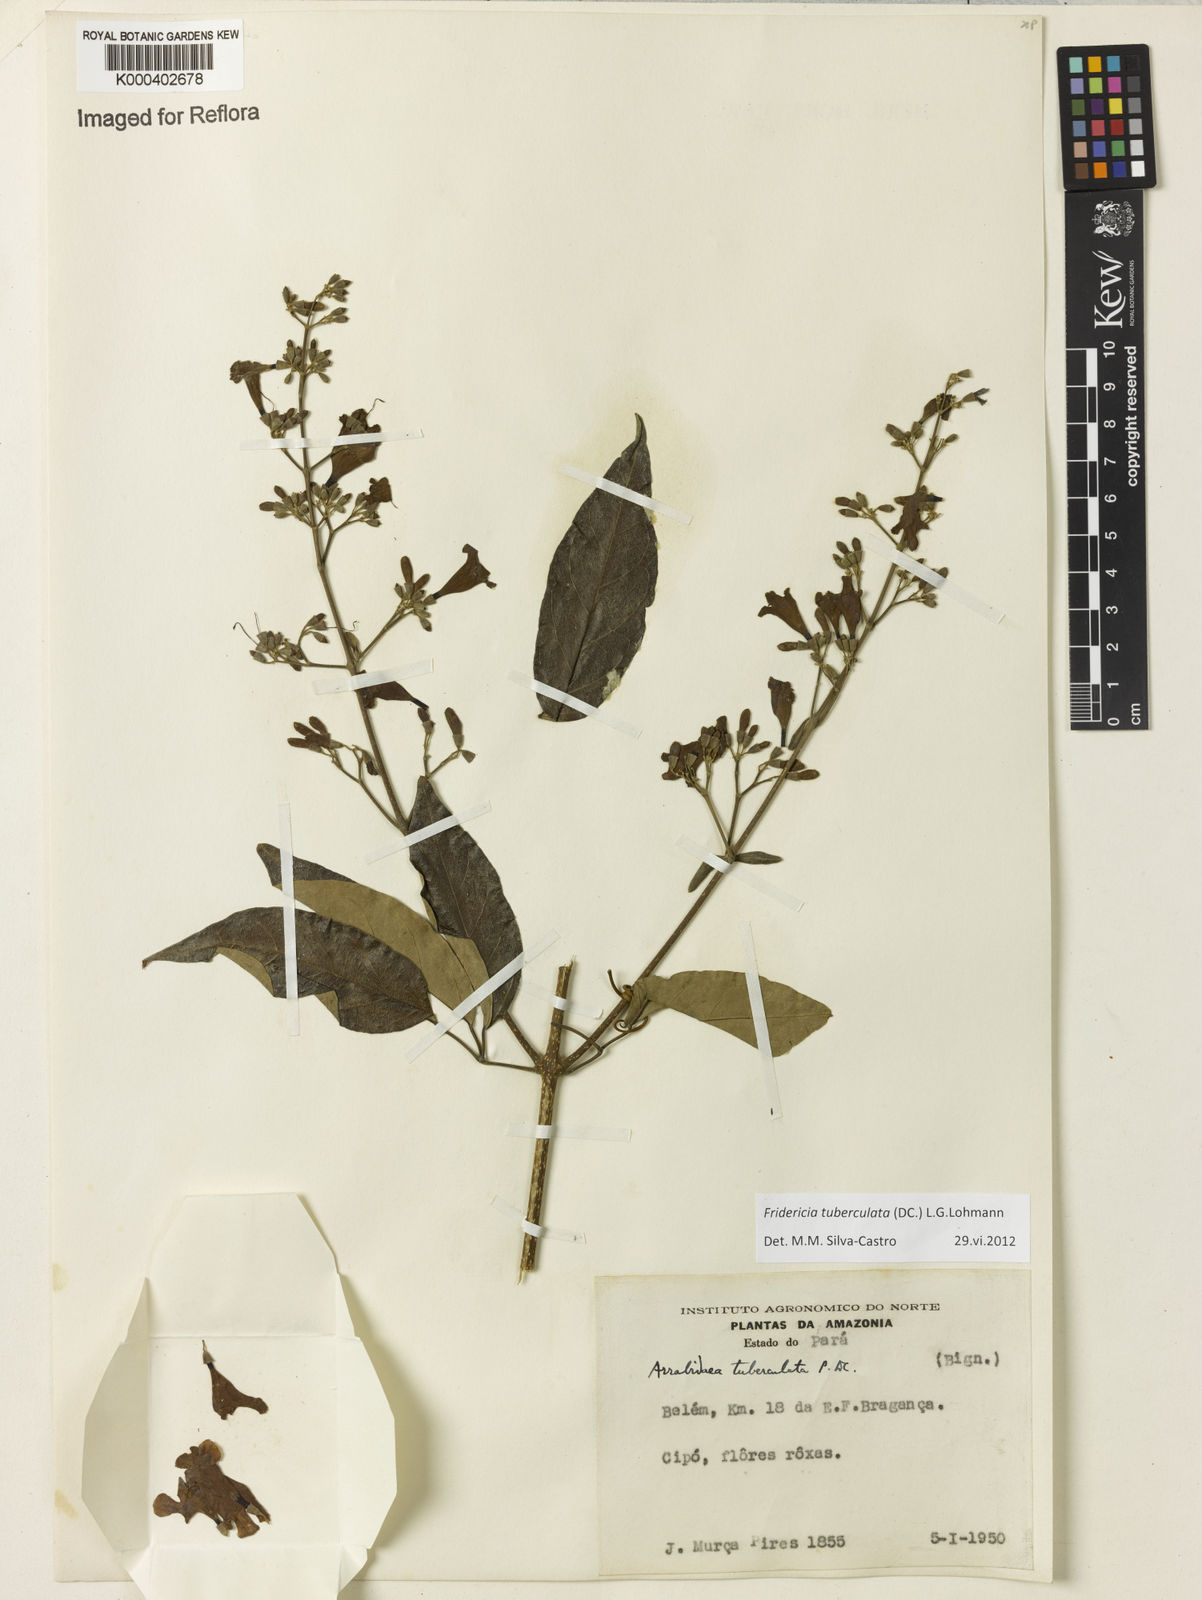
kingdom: Plantae
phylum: Tracheophyta
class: Magnoliopsida
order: Lamiales
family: Bignoniaceae
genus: Fridericia
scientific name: Fridericia tuberculata
